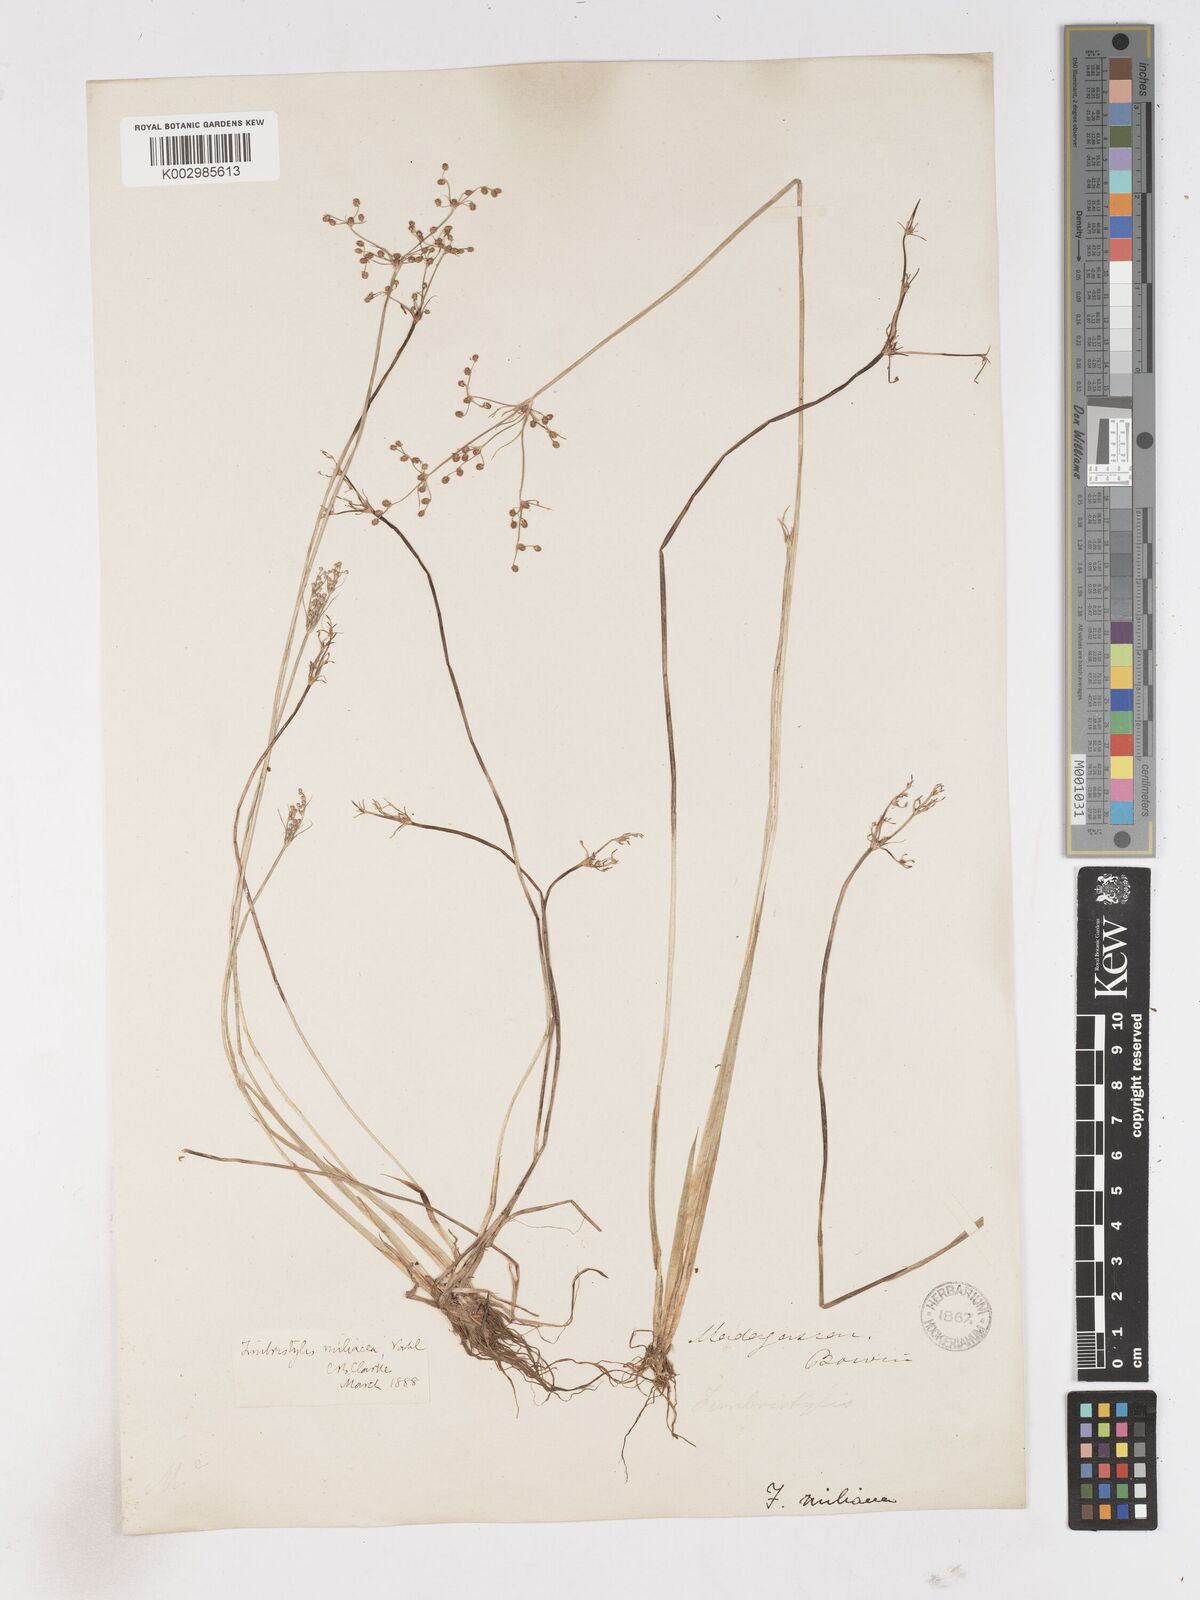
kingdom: Plantae
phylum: Tracheophyta
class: Liliopsida
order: Poales
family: Cyperaceae
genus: Fimbristylis
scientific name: Fimbristylis littoralis
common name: Fimbry
